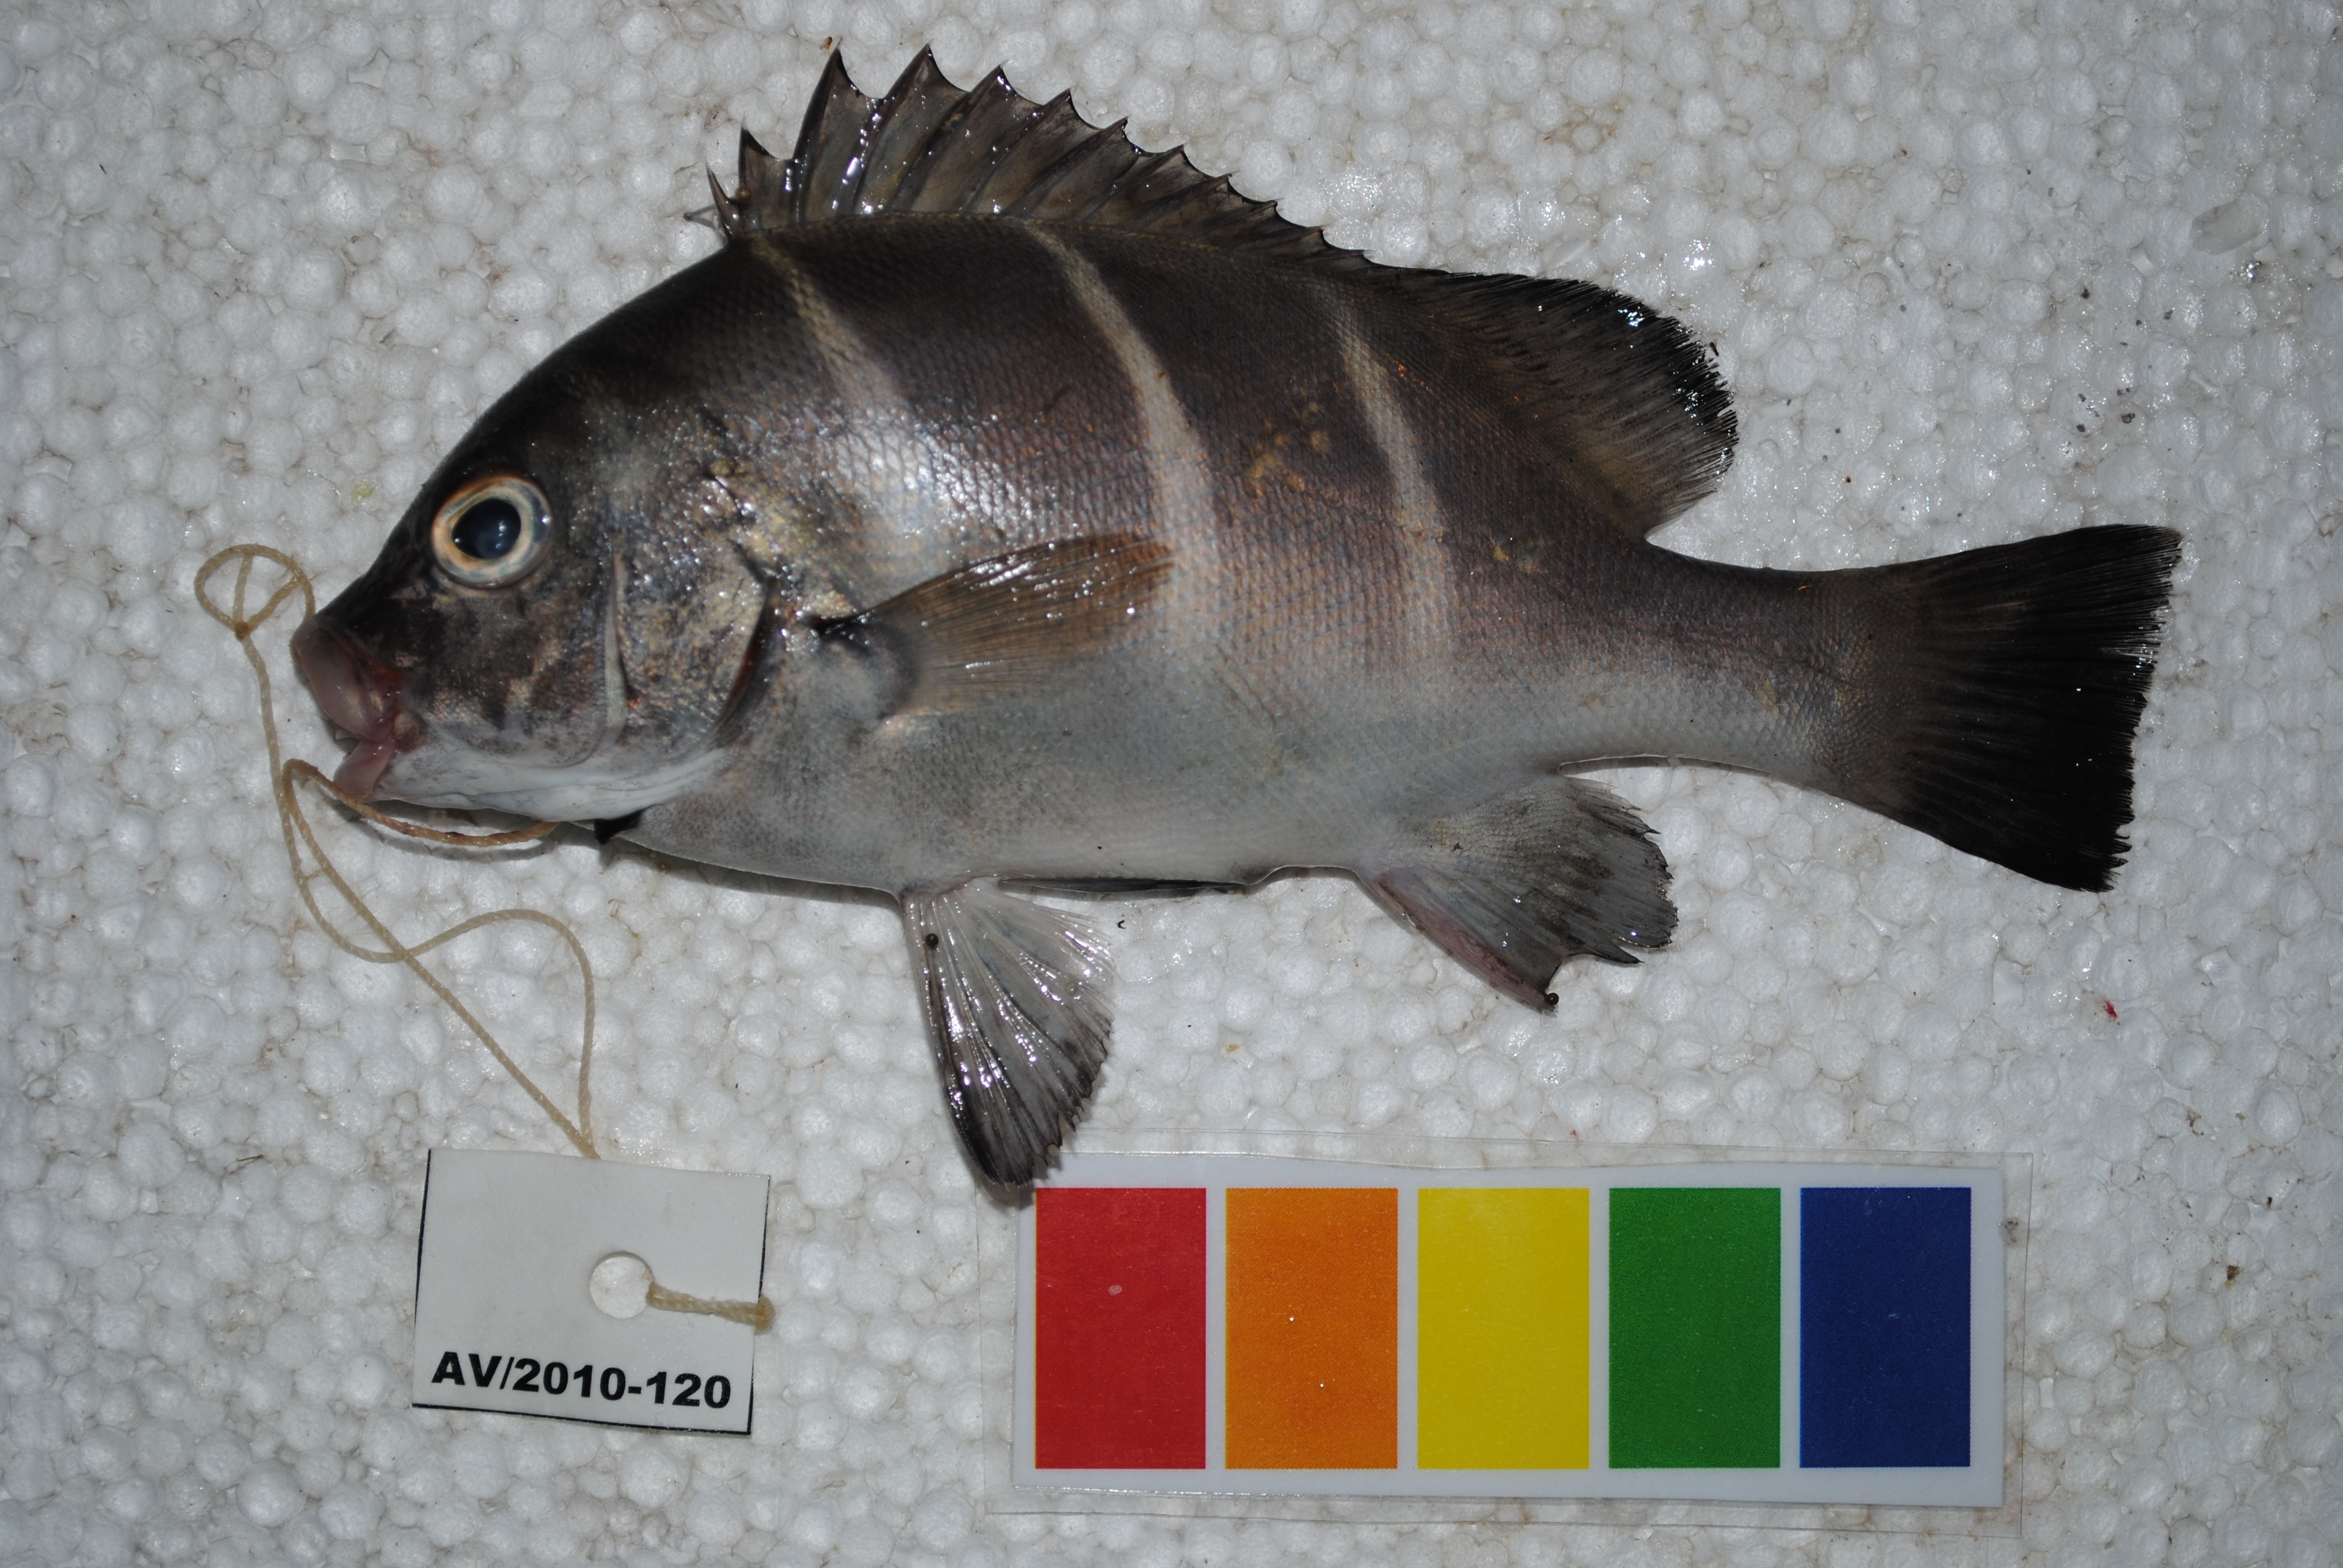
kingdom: Animalia
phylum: Chordata
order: Perciformes
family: Haemulidae
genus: Plectorhinchus
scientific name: Plectorhinchus playfairi
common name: Whitebarred rubberlip
